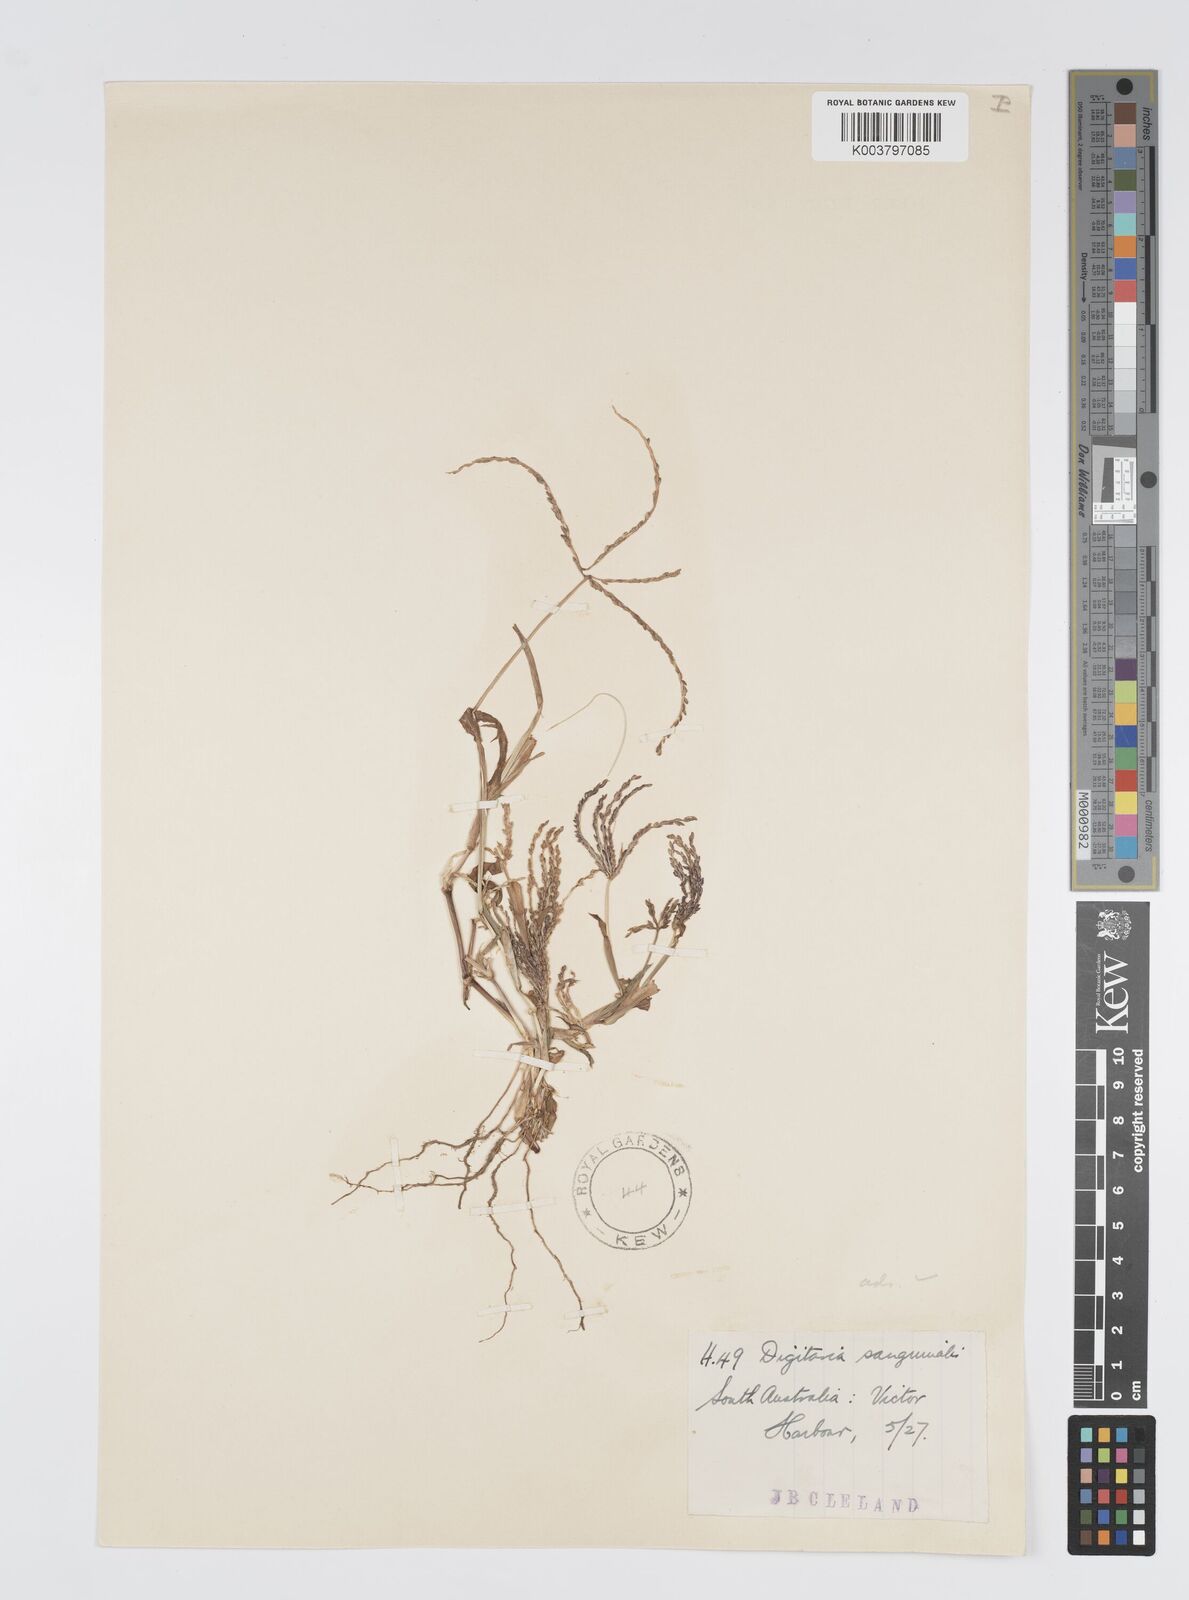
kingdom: Plantae
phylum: Tracheophyta
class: Liliopsida
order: Poales
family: Poaceae
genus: Digitaria
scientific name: Digitaria ciliaris
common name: Tropical finger-grass
